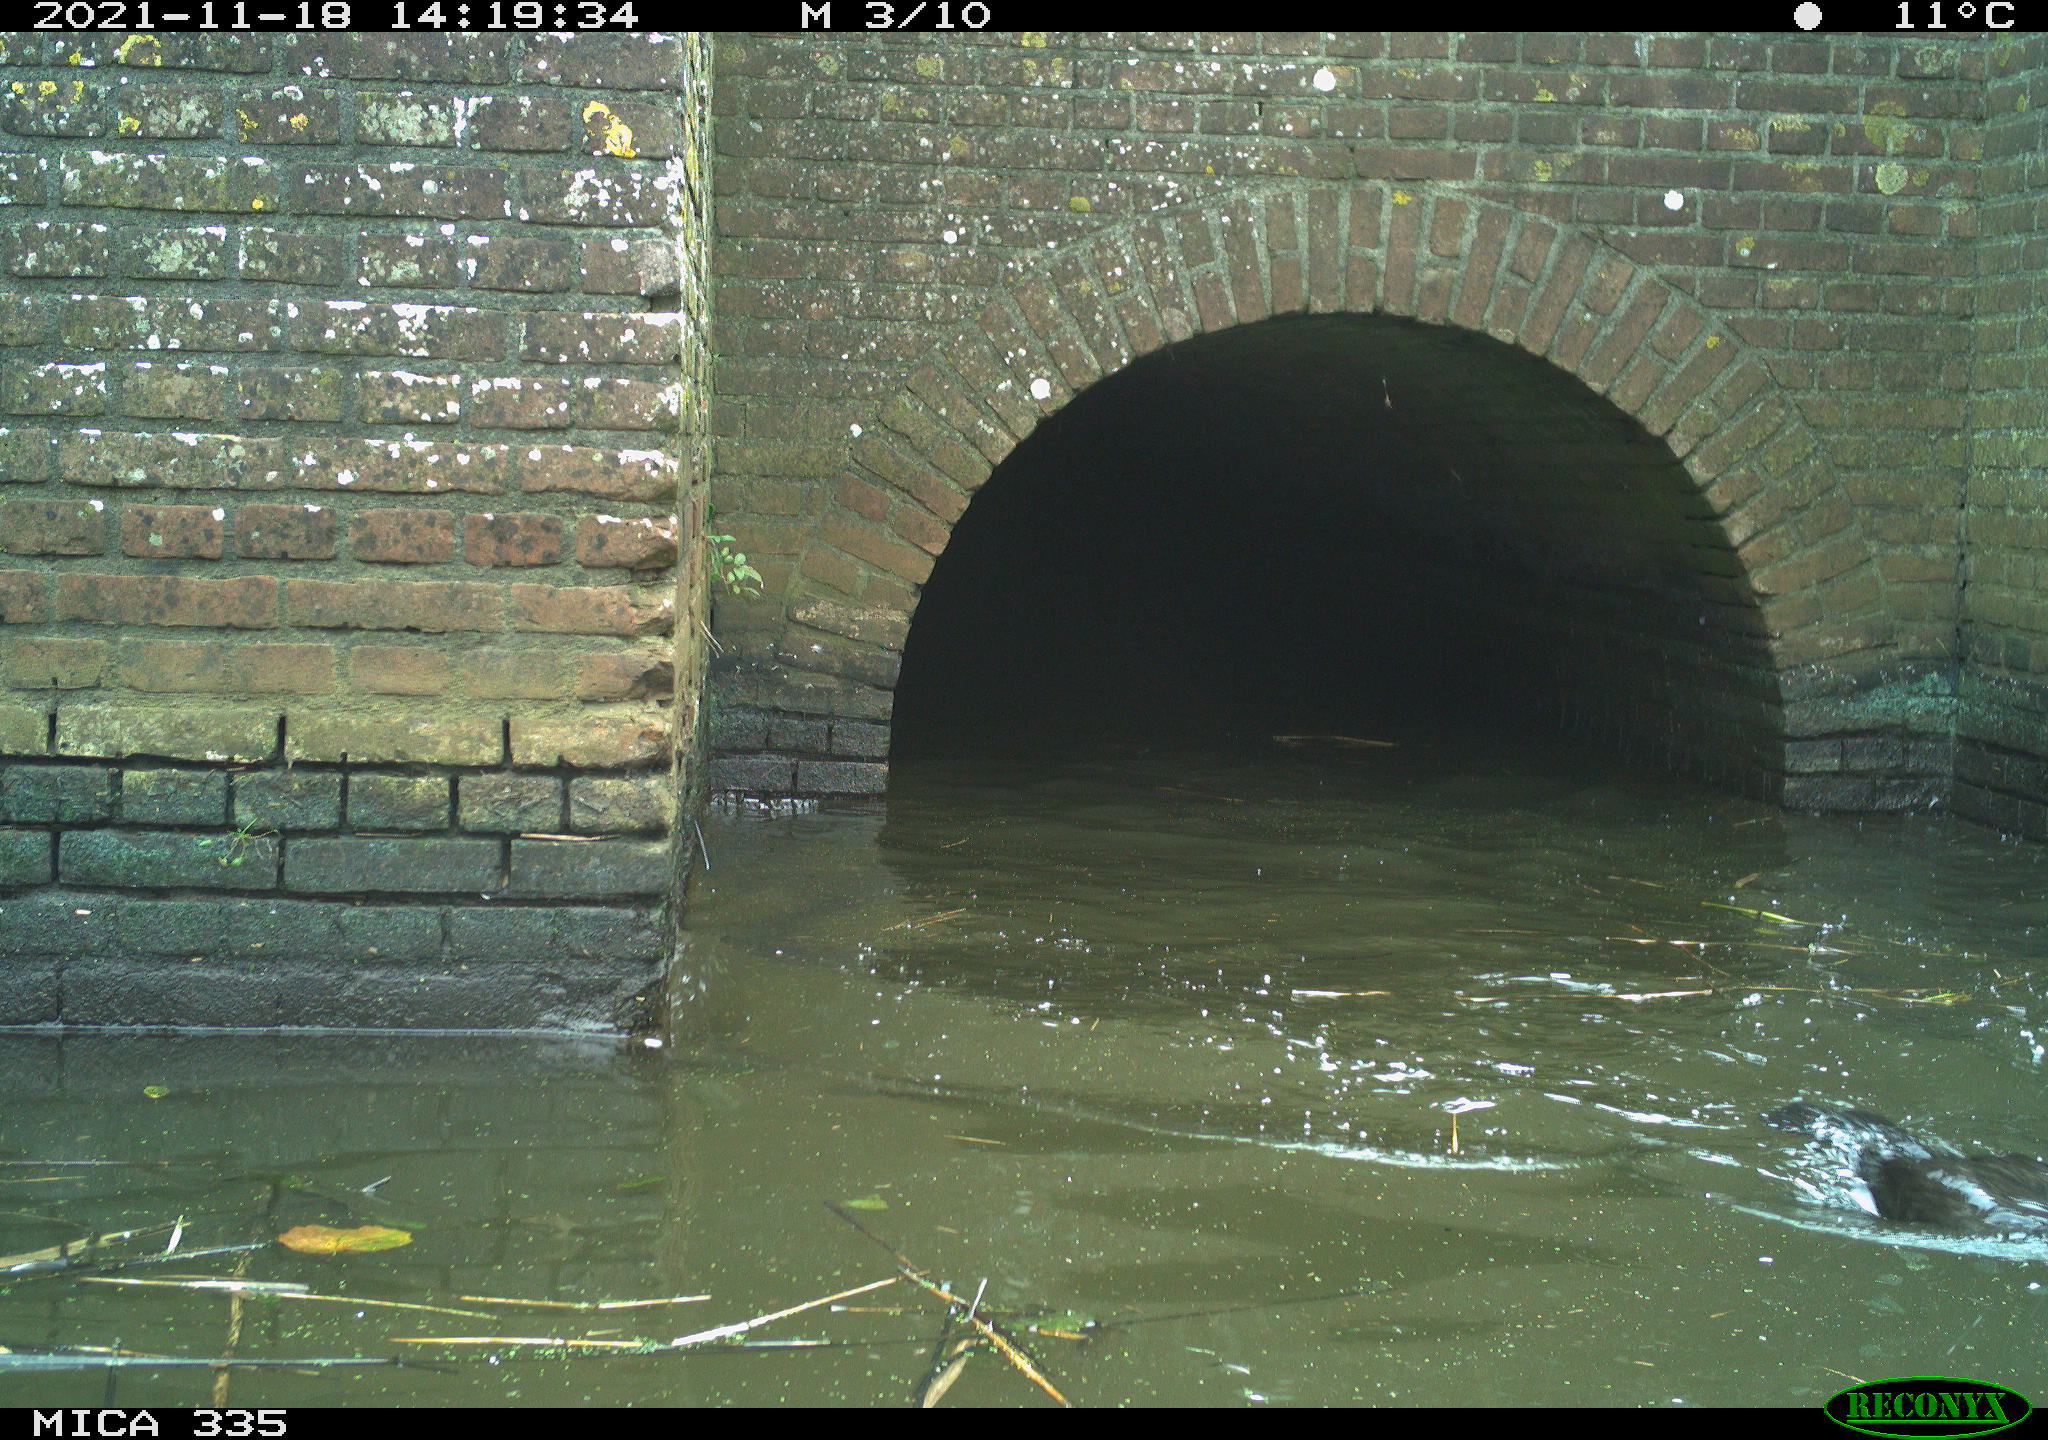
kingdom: Animalia
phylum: Chordata
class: Aves
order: Suliformes
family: Phalacrocoracidae
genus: Phalacrocorax
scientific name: Phalacrocorax carbo
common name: Great cormorant
